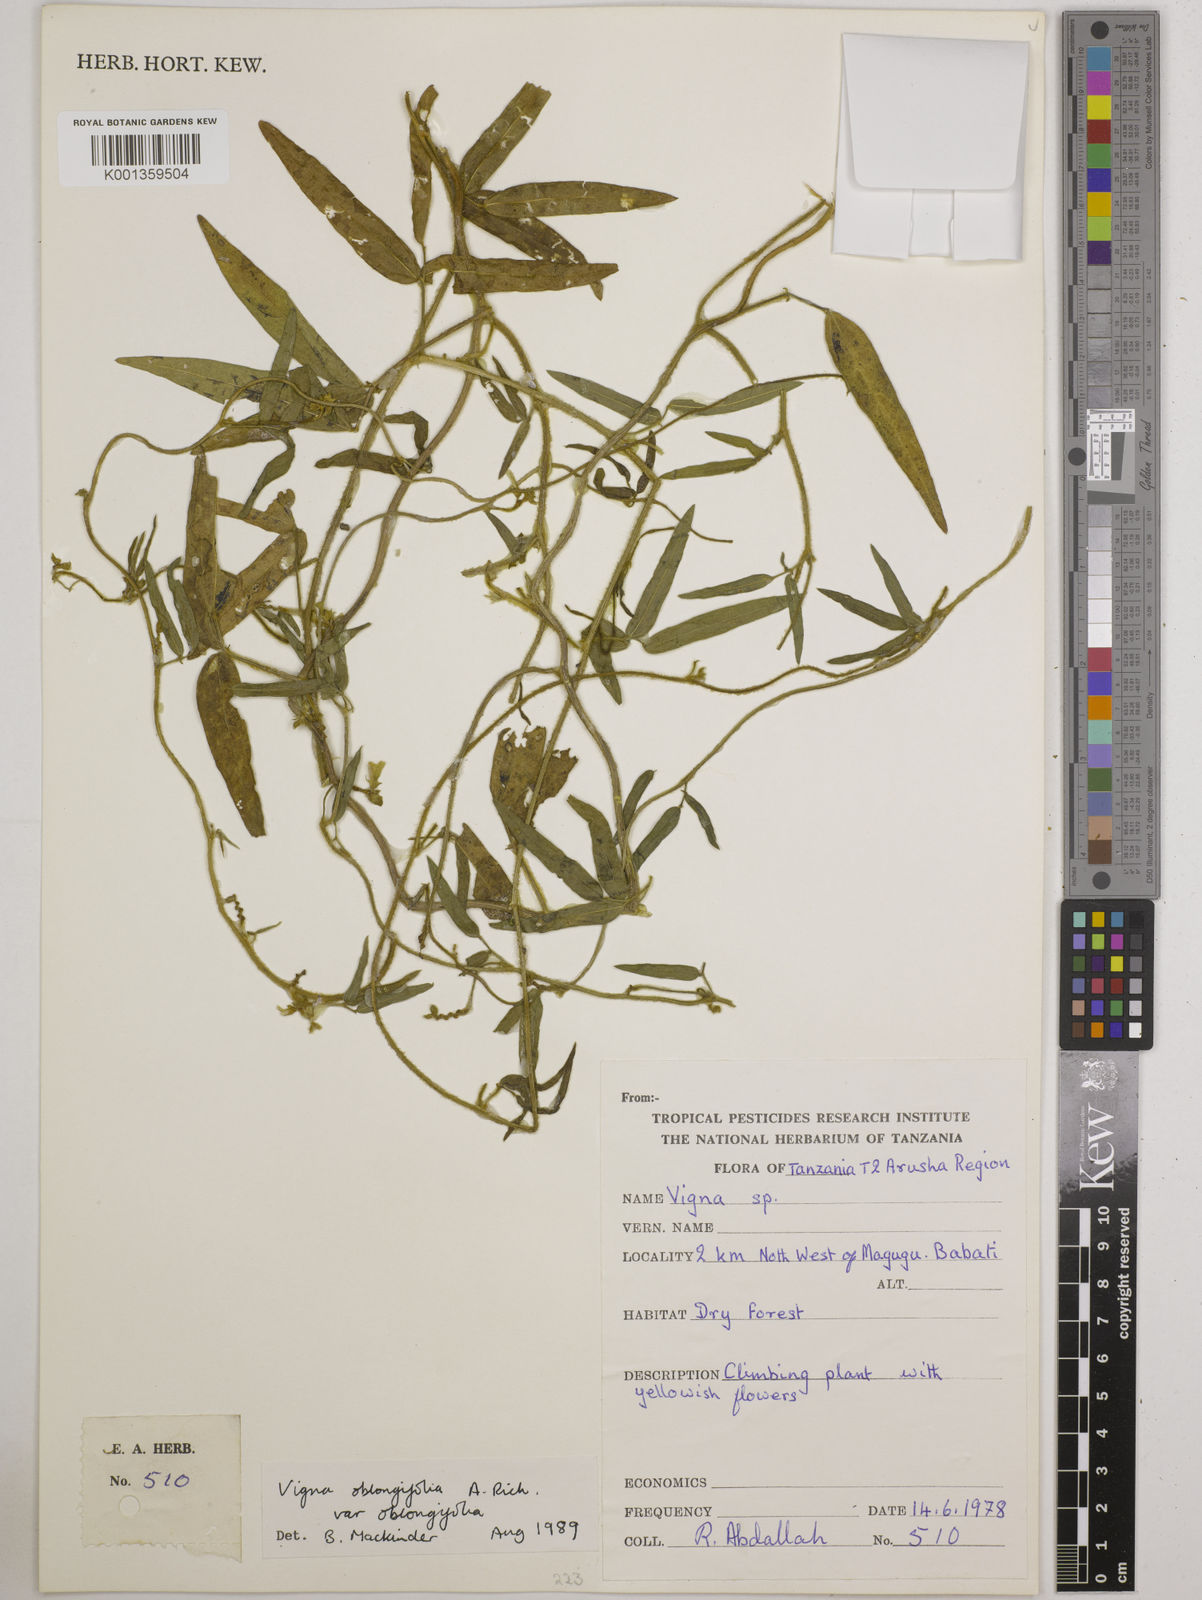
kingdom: Plantae
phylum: Tracheophyta
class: Magnoliopsida
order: Fabales
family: Fabaceae
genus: Vigna
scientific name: Vigna oblongifolia
